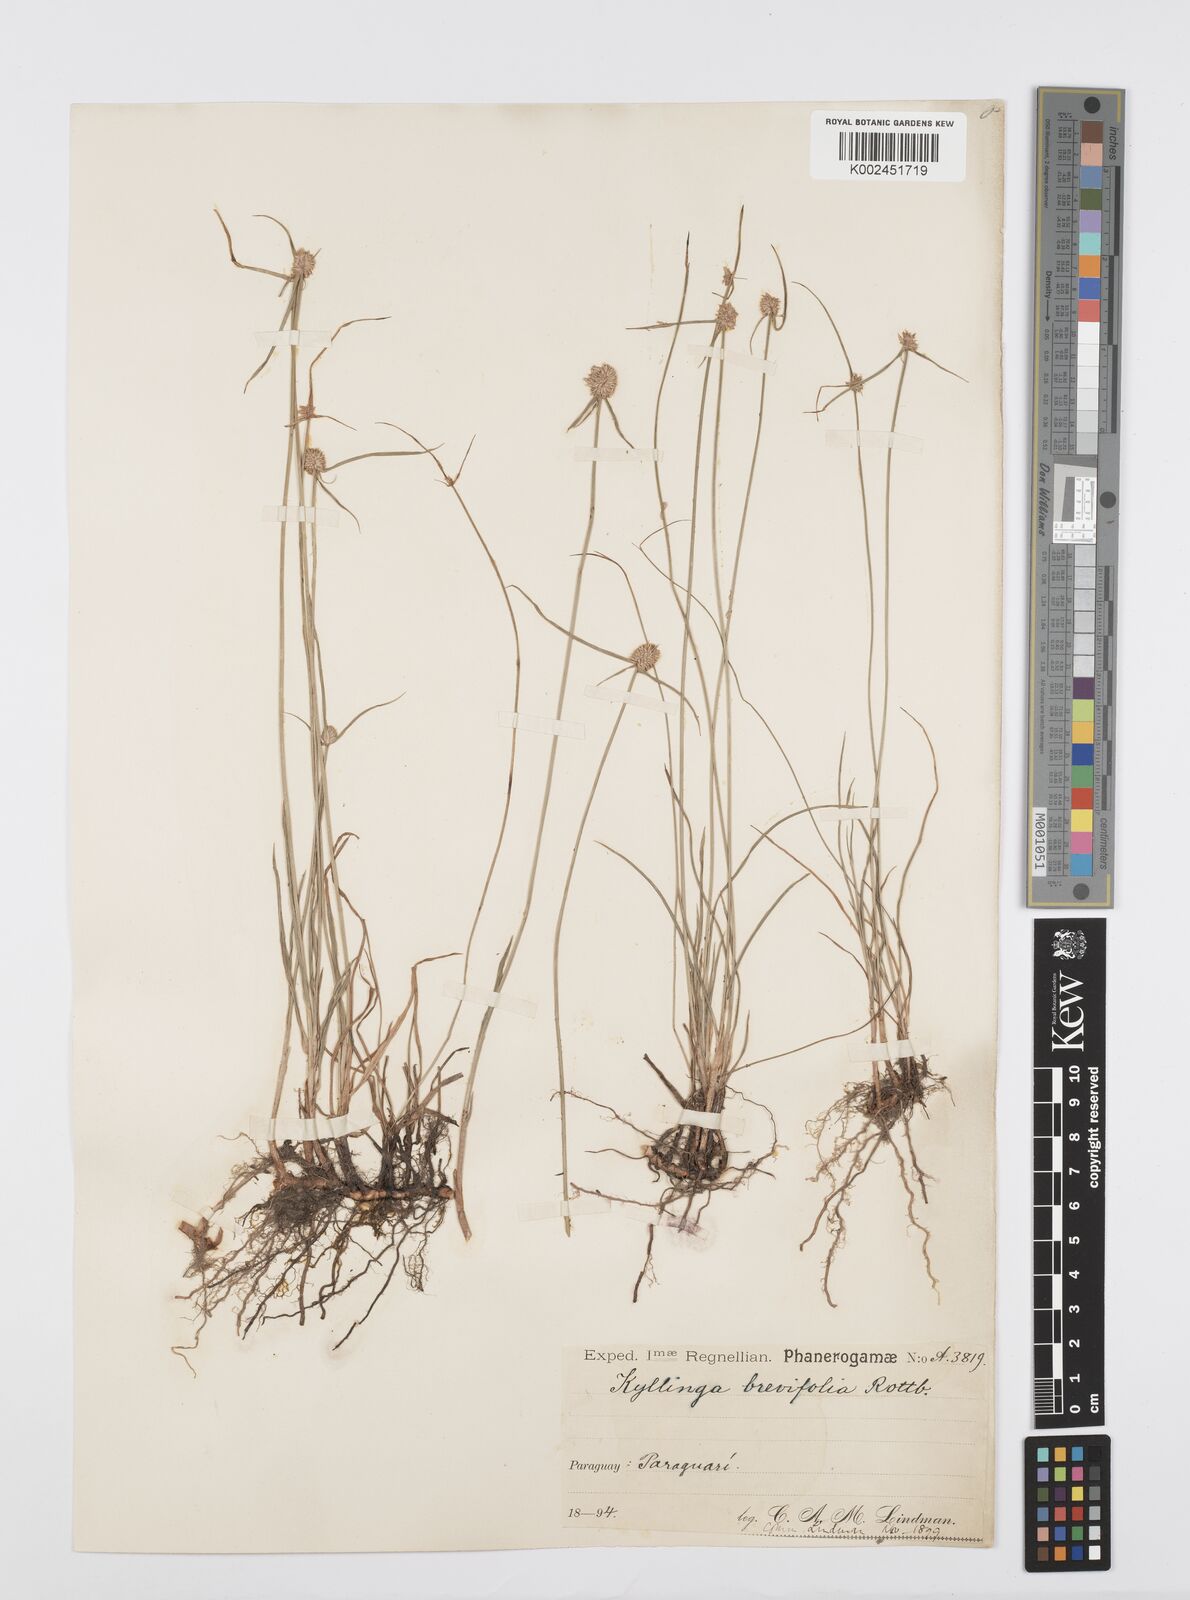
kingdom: Plantae
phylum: Tracheophyta
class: Liliopsida
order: Poales
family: Cyperaceae
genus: Cyperus
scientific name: Cyperus brevifolius
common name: Globe kyllinga
